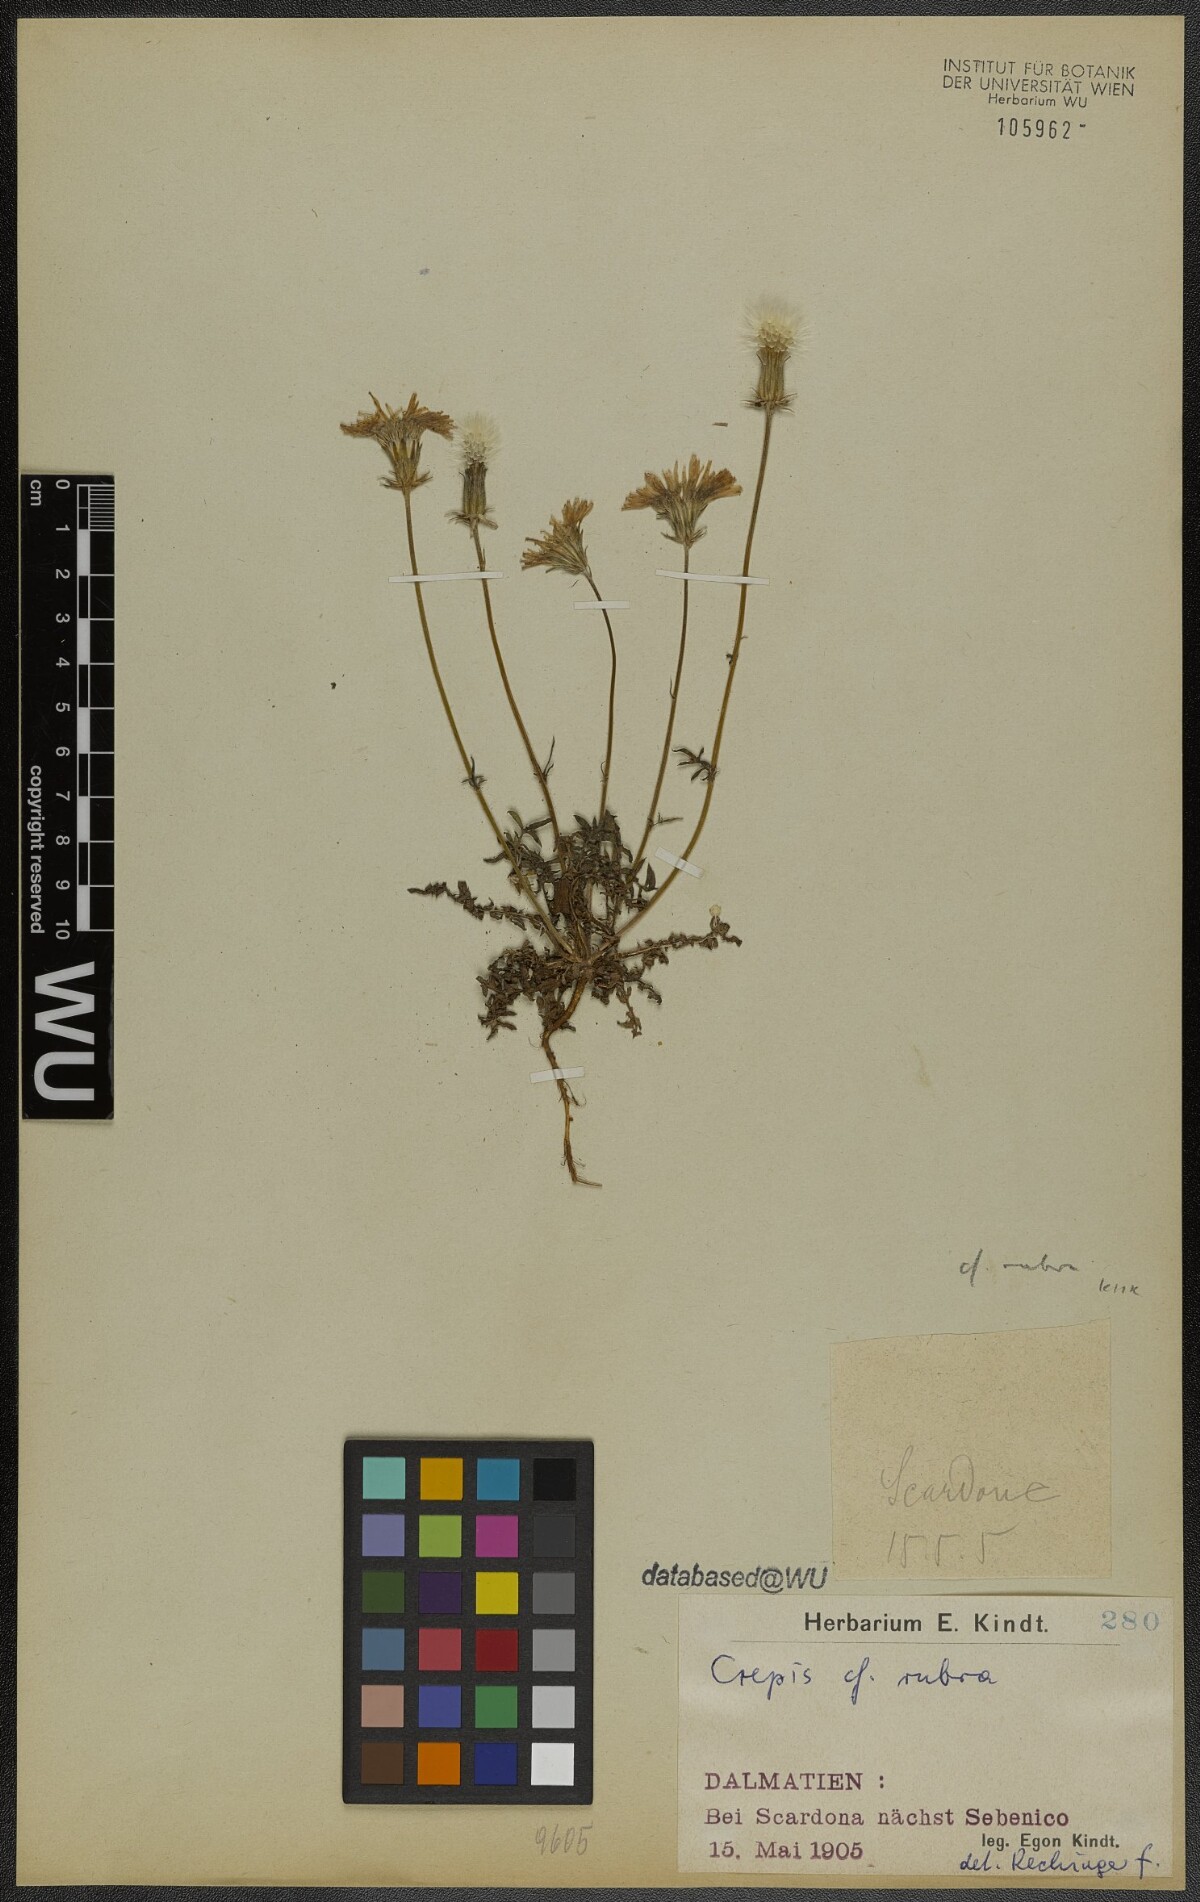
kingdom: Plantae
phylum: Tracheophyta
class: Magnoliopsida
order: Asterales
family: Asteraceae
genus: Crepis
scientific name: Crepis rubra
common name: Pink hawk's-beard
